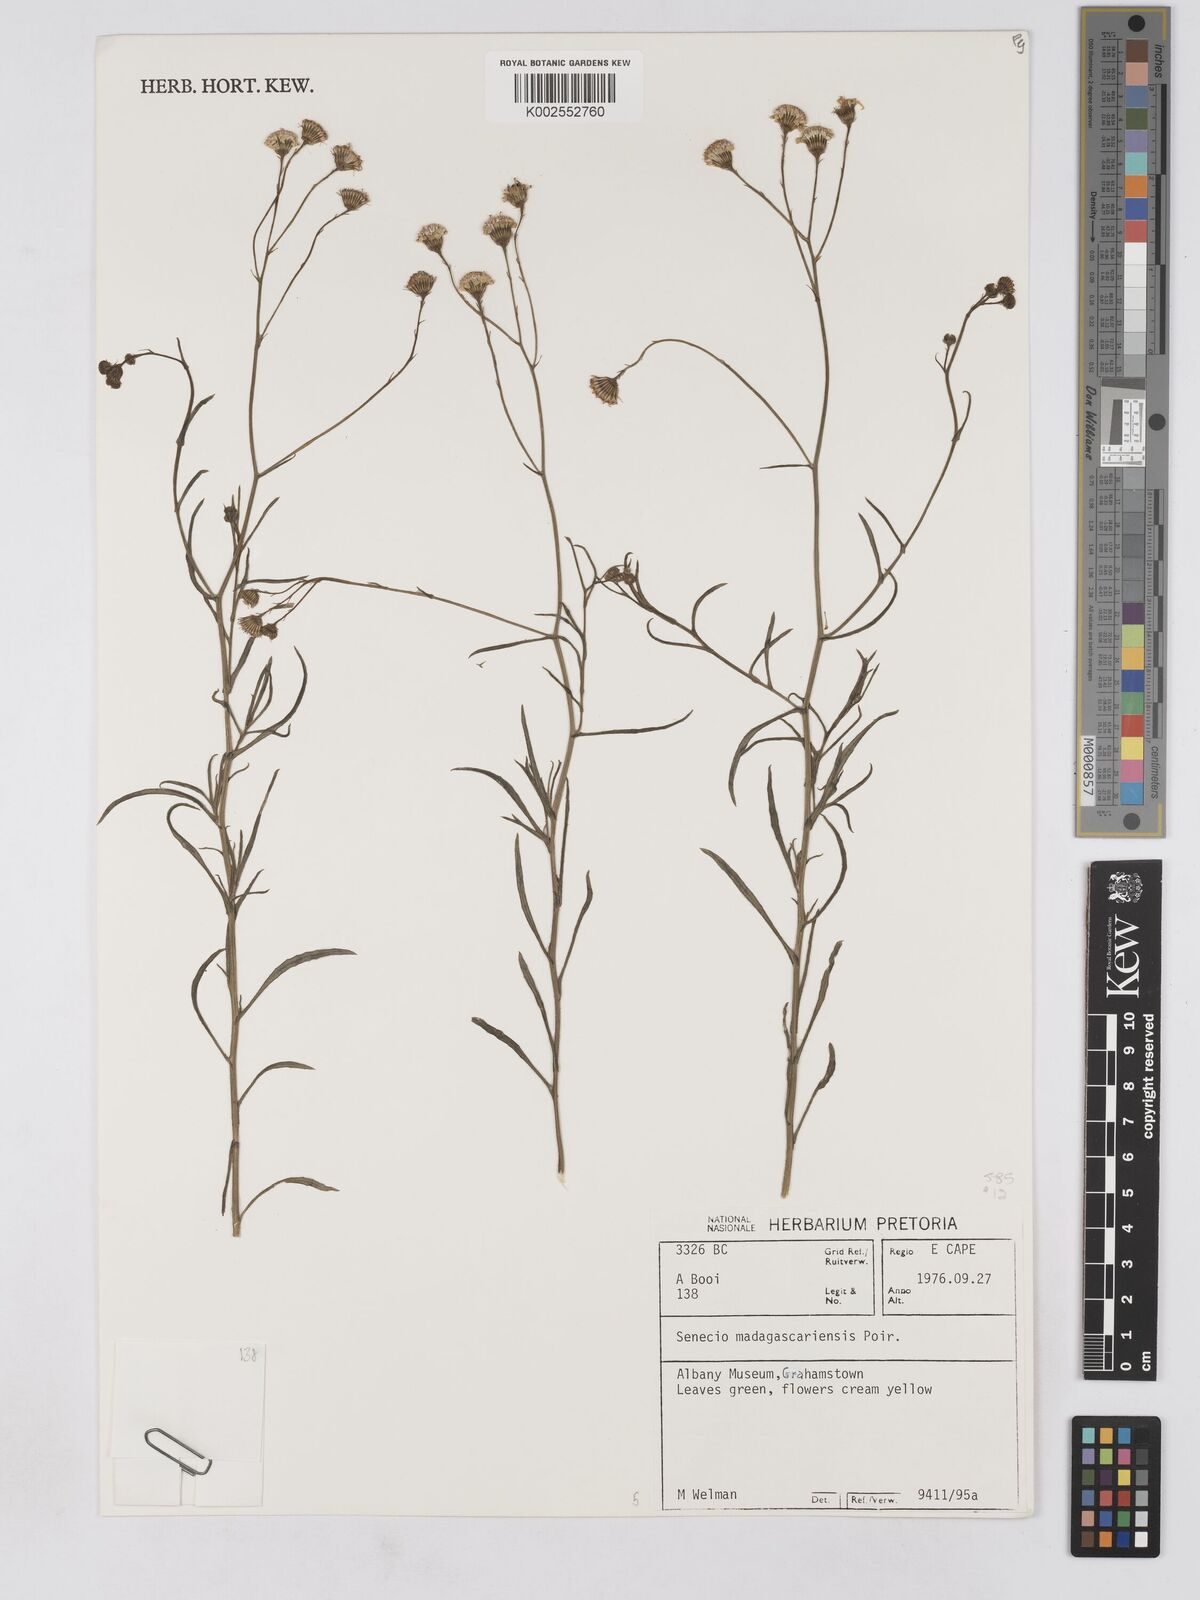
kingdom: Plantae
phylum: Tracheophyta
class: Magnoliopsida
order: Asterales
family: Asteraceae
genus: Senecio
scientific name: Senecio madagascariensis
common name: Madagascar ragwort
